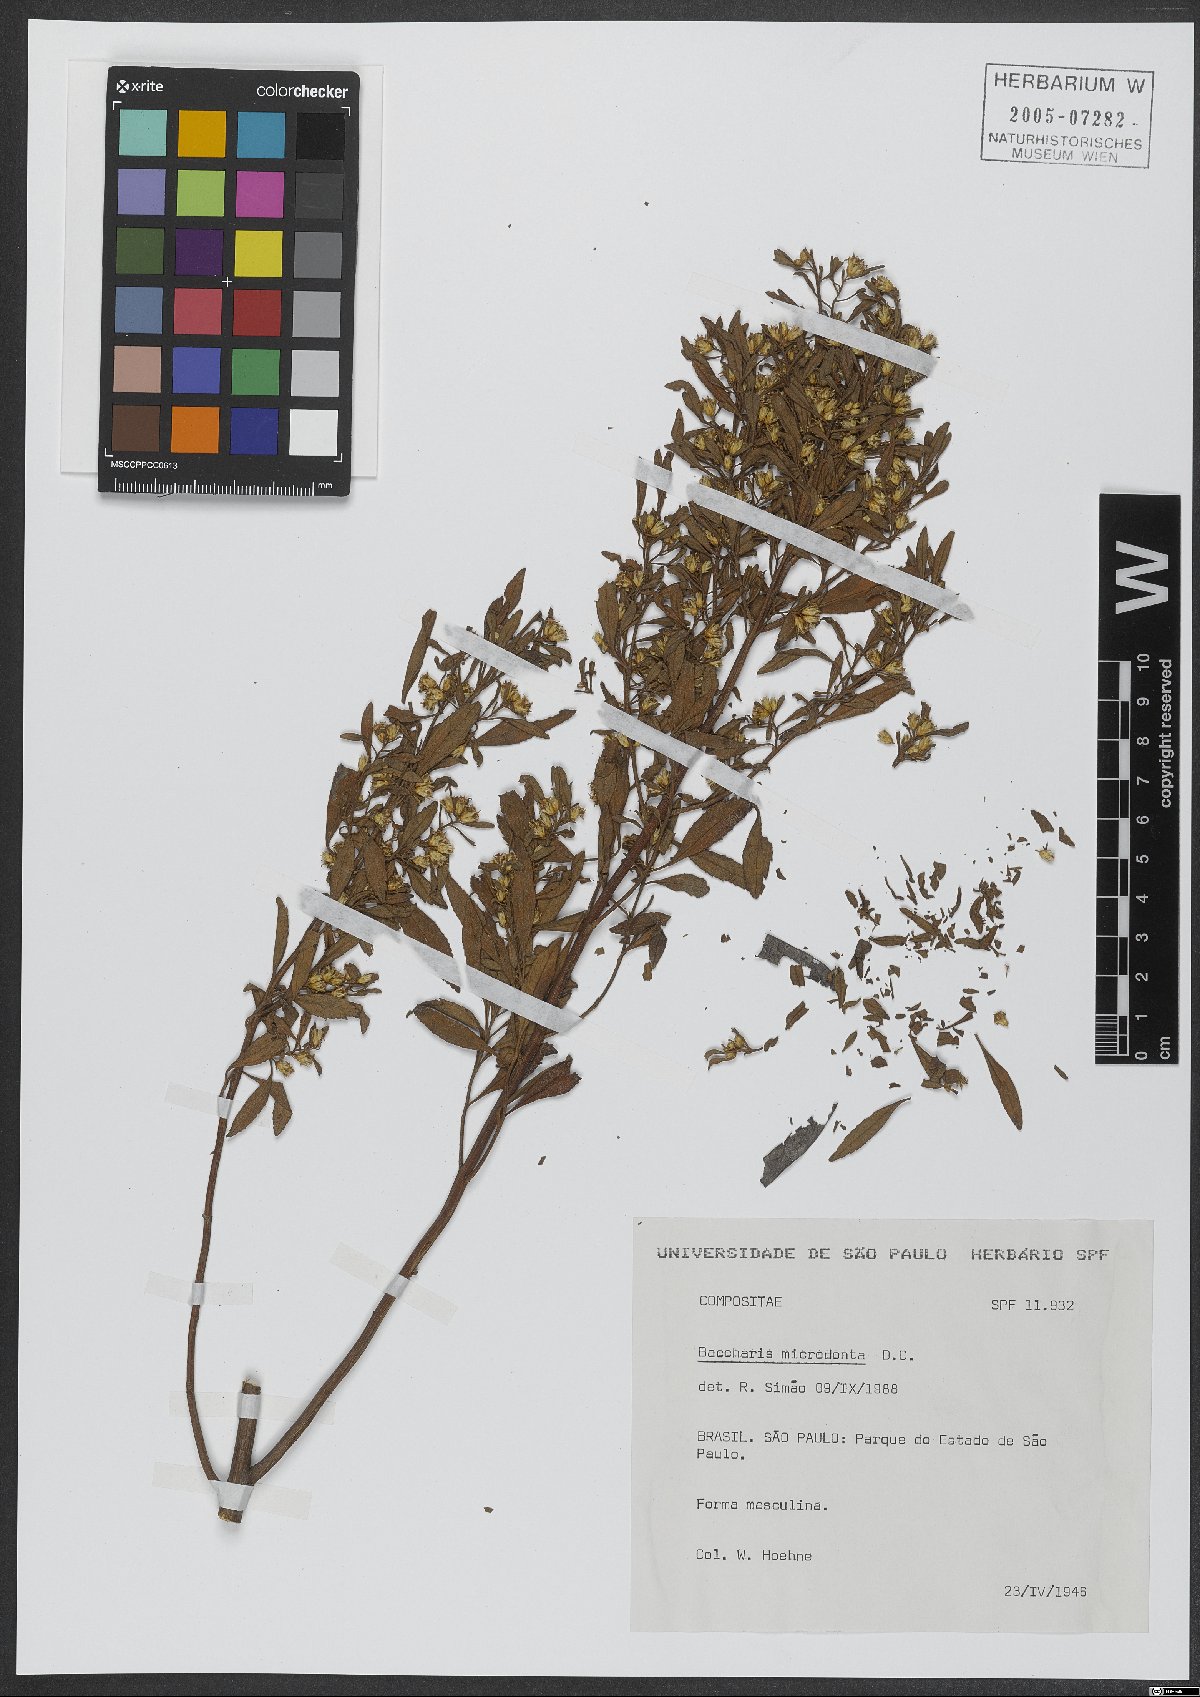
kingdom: Plantae
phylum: Tracheophyta
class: Magnoliopsida
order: Asterales
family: Asteraceae
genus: Baccharis
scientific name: Baccharis microdonta
